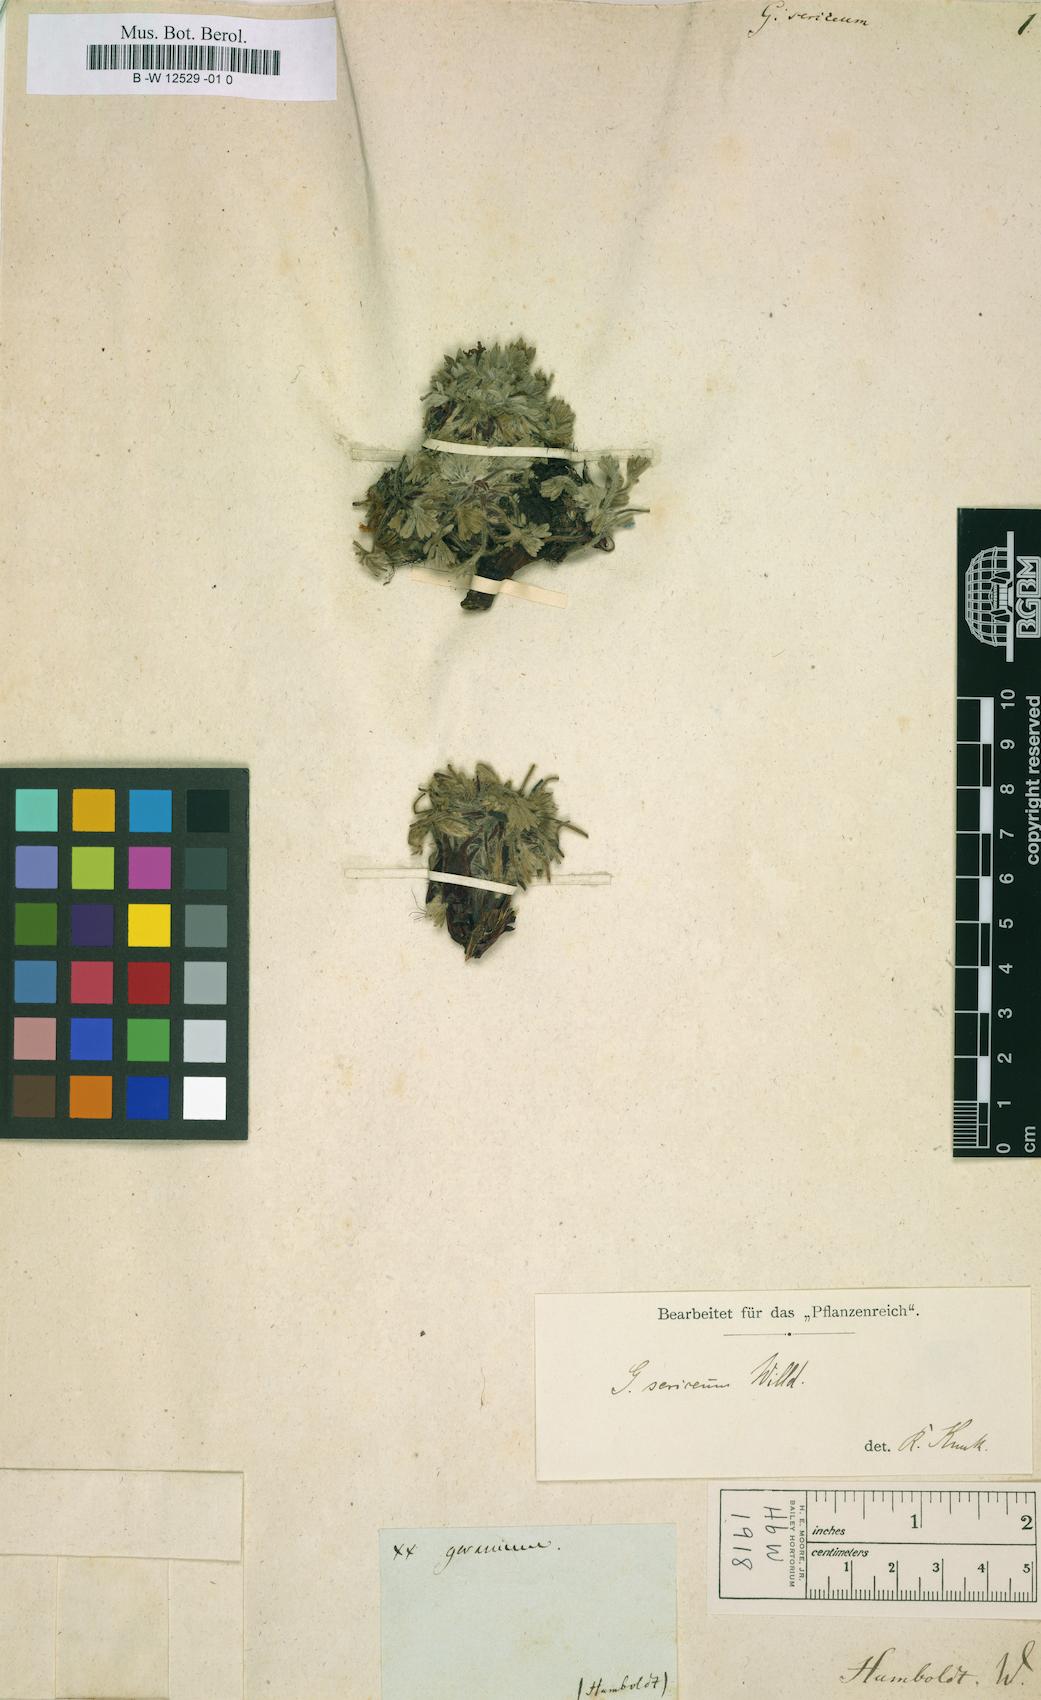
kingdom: Plantae
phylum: Tracheophyta
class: Magnoliopsida
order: Geraniales
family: Geraniaceae
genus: Geranium
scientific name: Geranium sericeum
